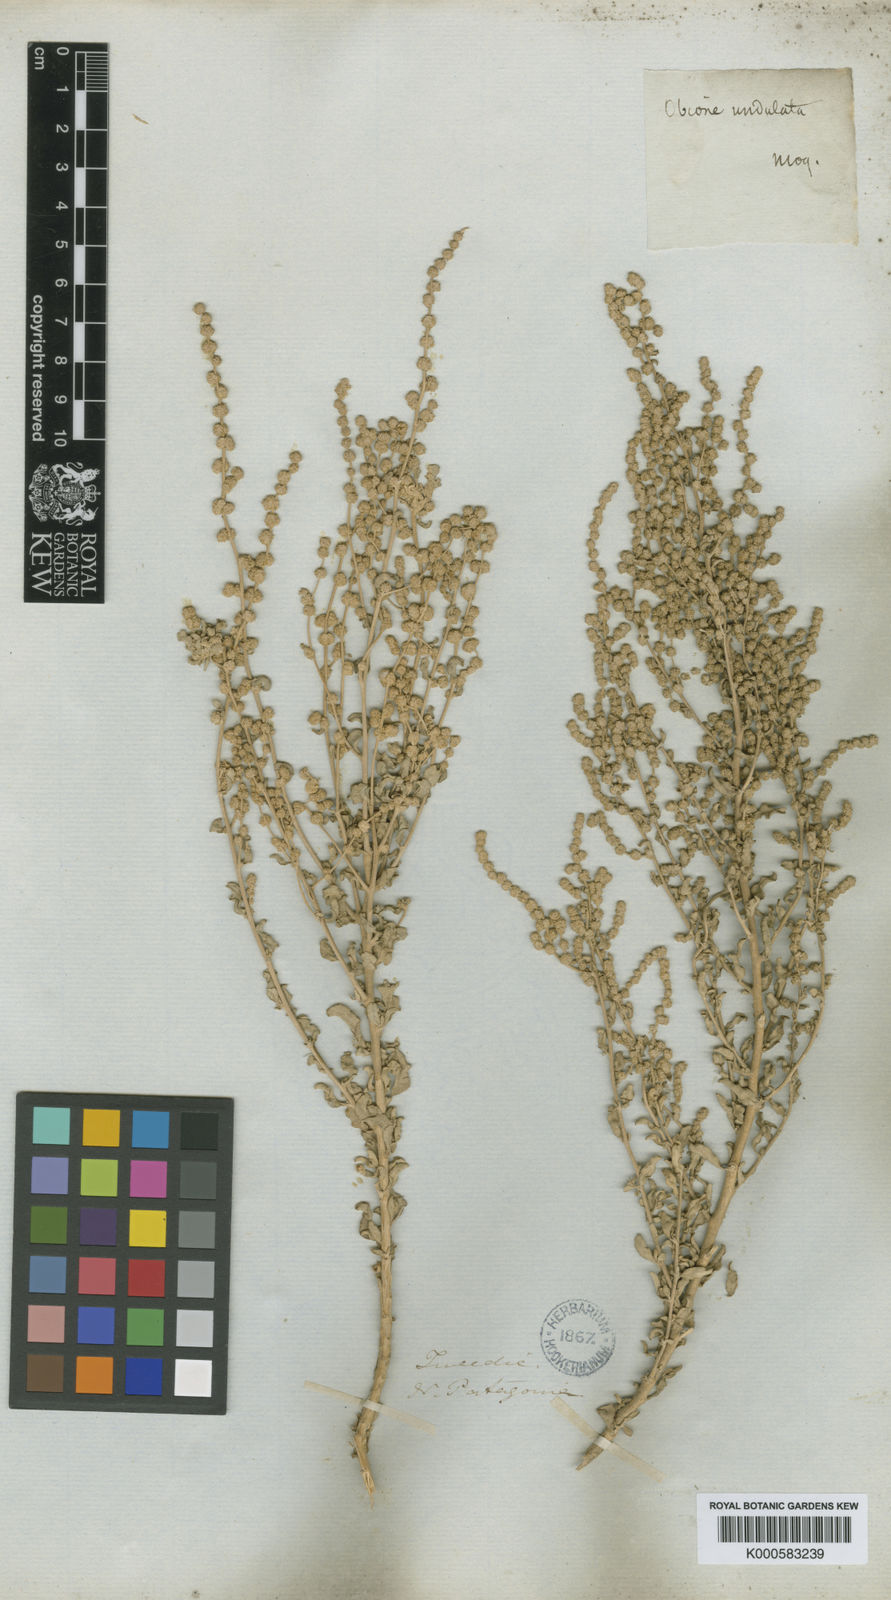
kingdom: Plantae
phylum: Tracheophyta
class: Magnoliopsida
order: Caryophyllales
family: Amaranthaceae
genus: Atriplex
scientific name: Atriplex undulata
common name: Wavy-leaved saltbush
